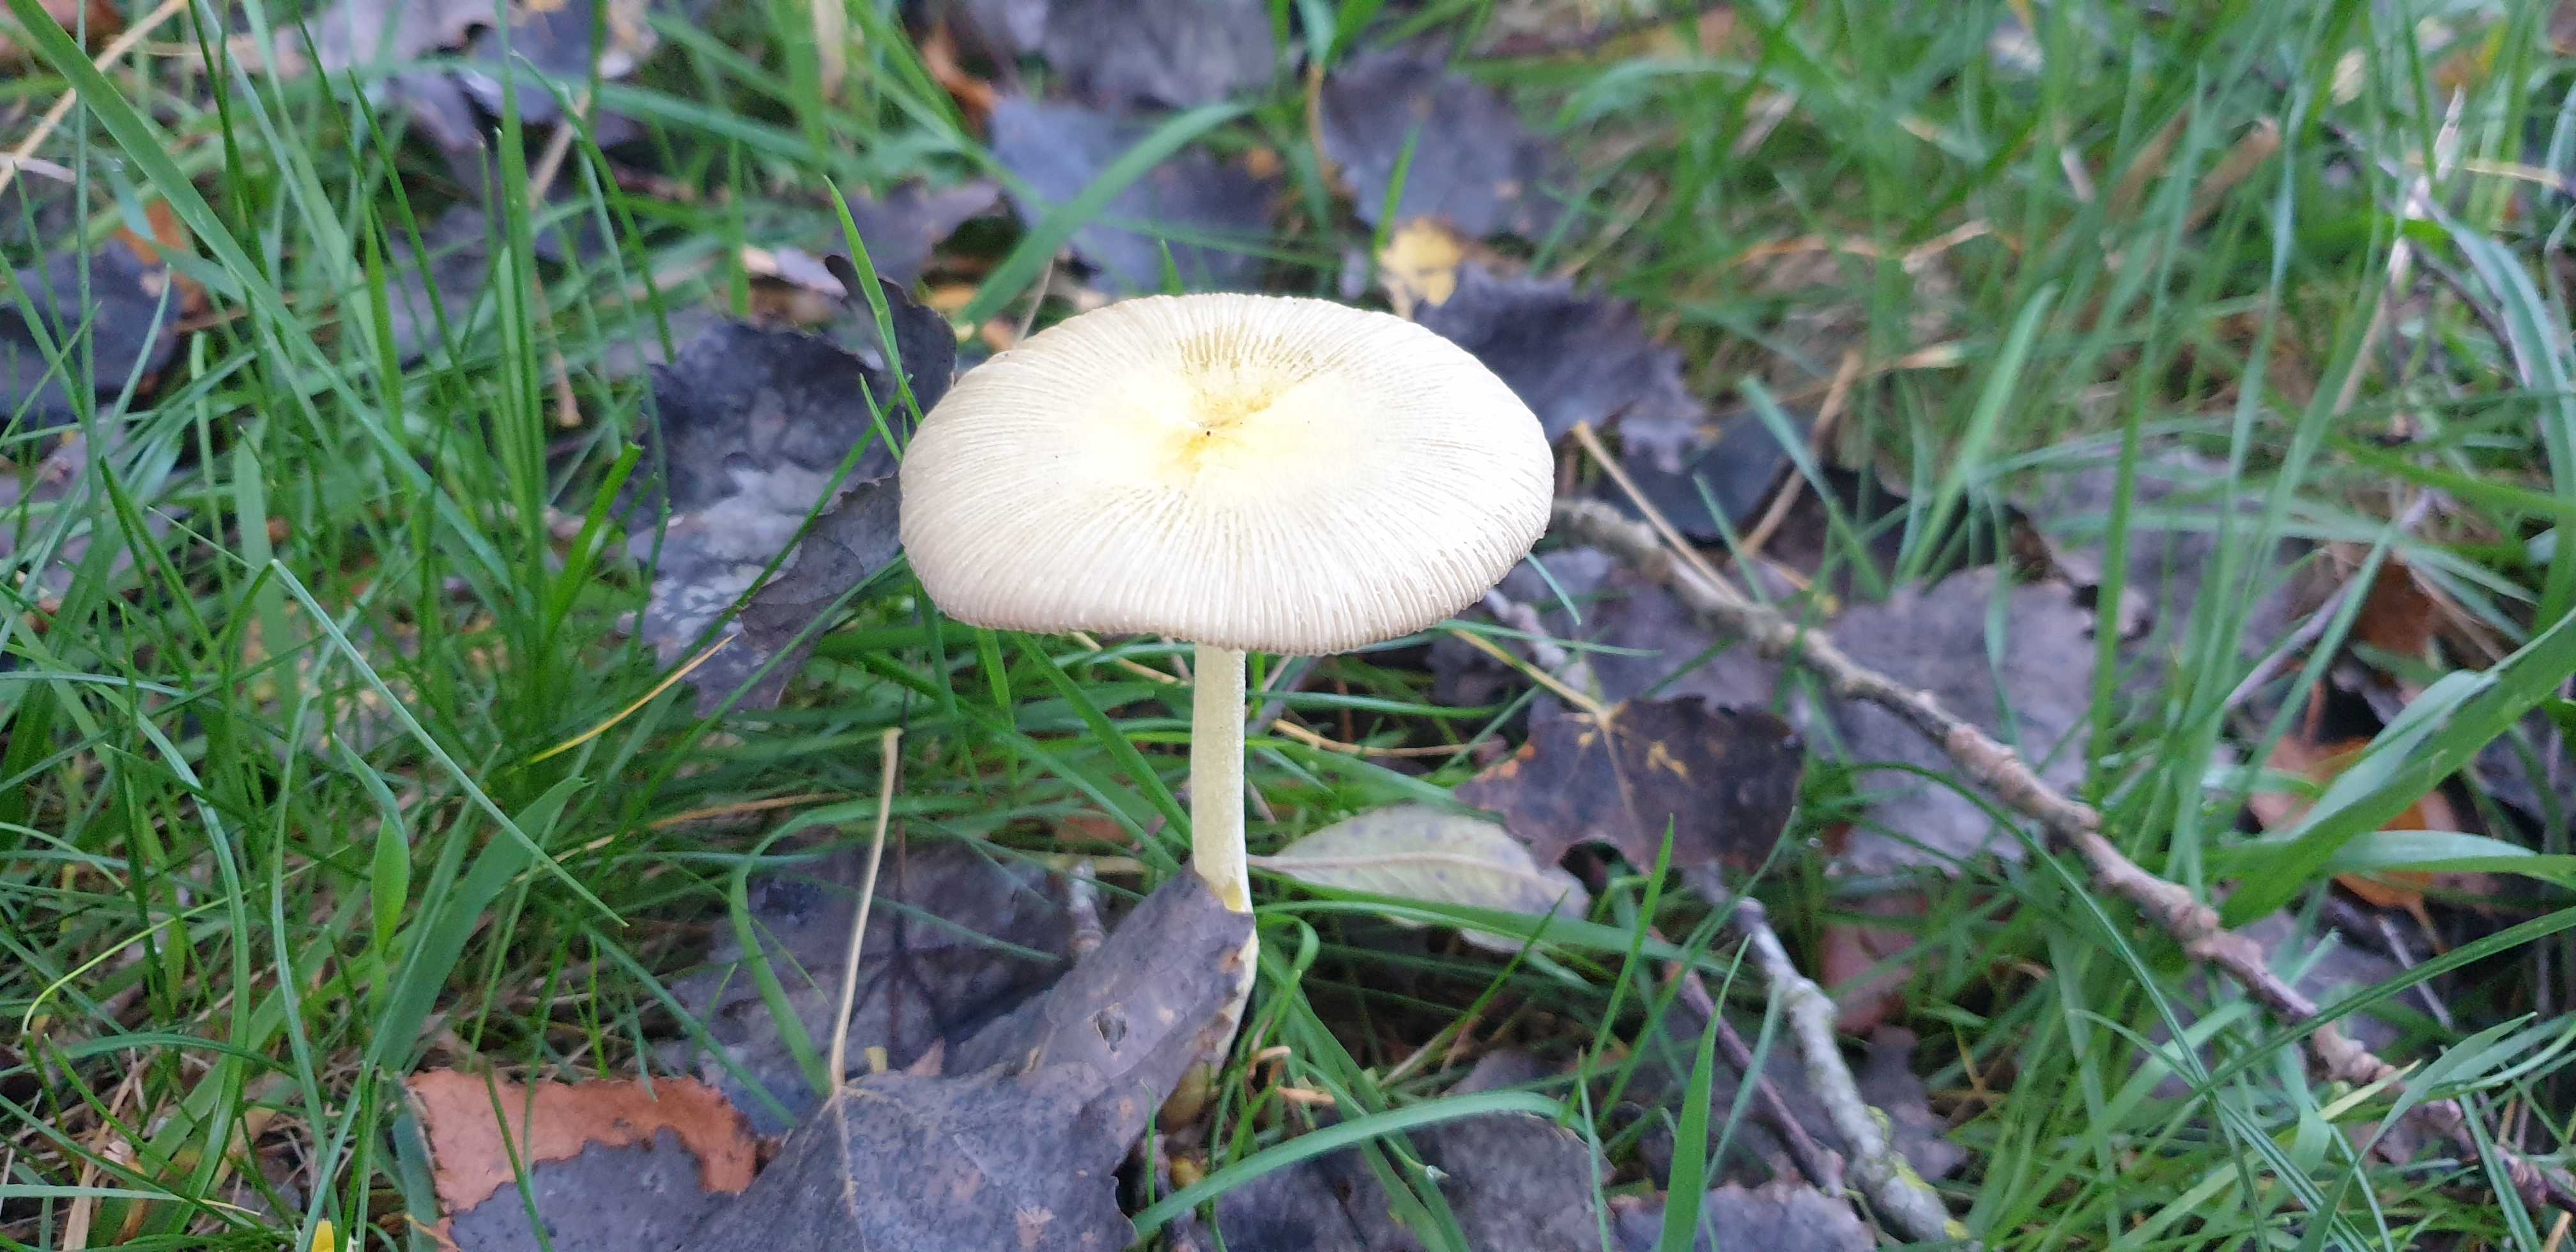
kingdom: Fungi
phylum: Basidiomycota
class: Agaricomycetes
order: Agaricales
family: Bolbitiaceae
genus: Bolbitius
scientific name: Bolbitius titubans
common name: almindelig gulhat
